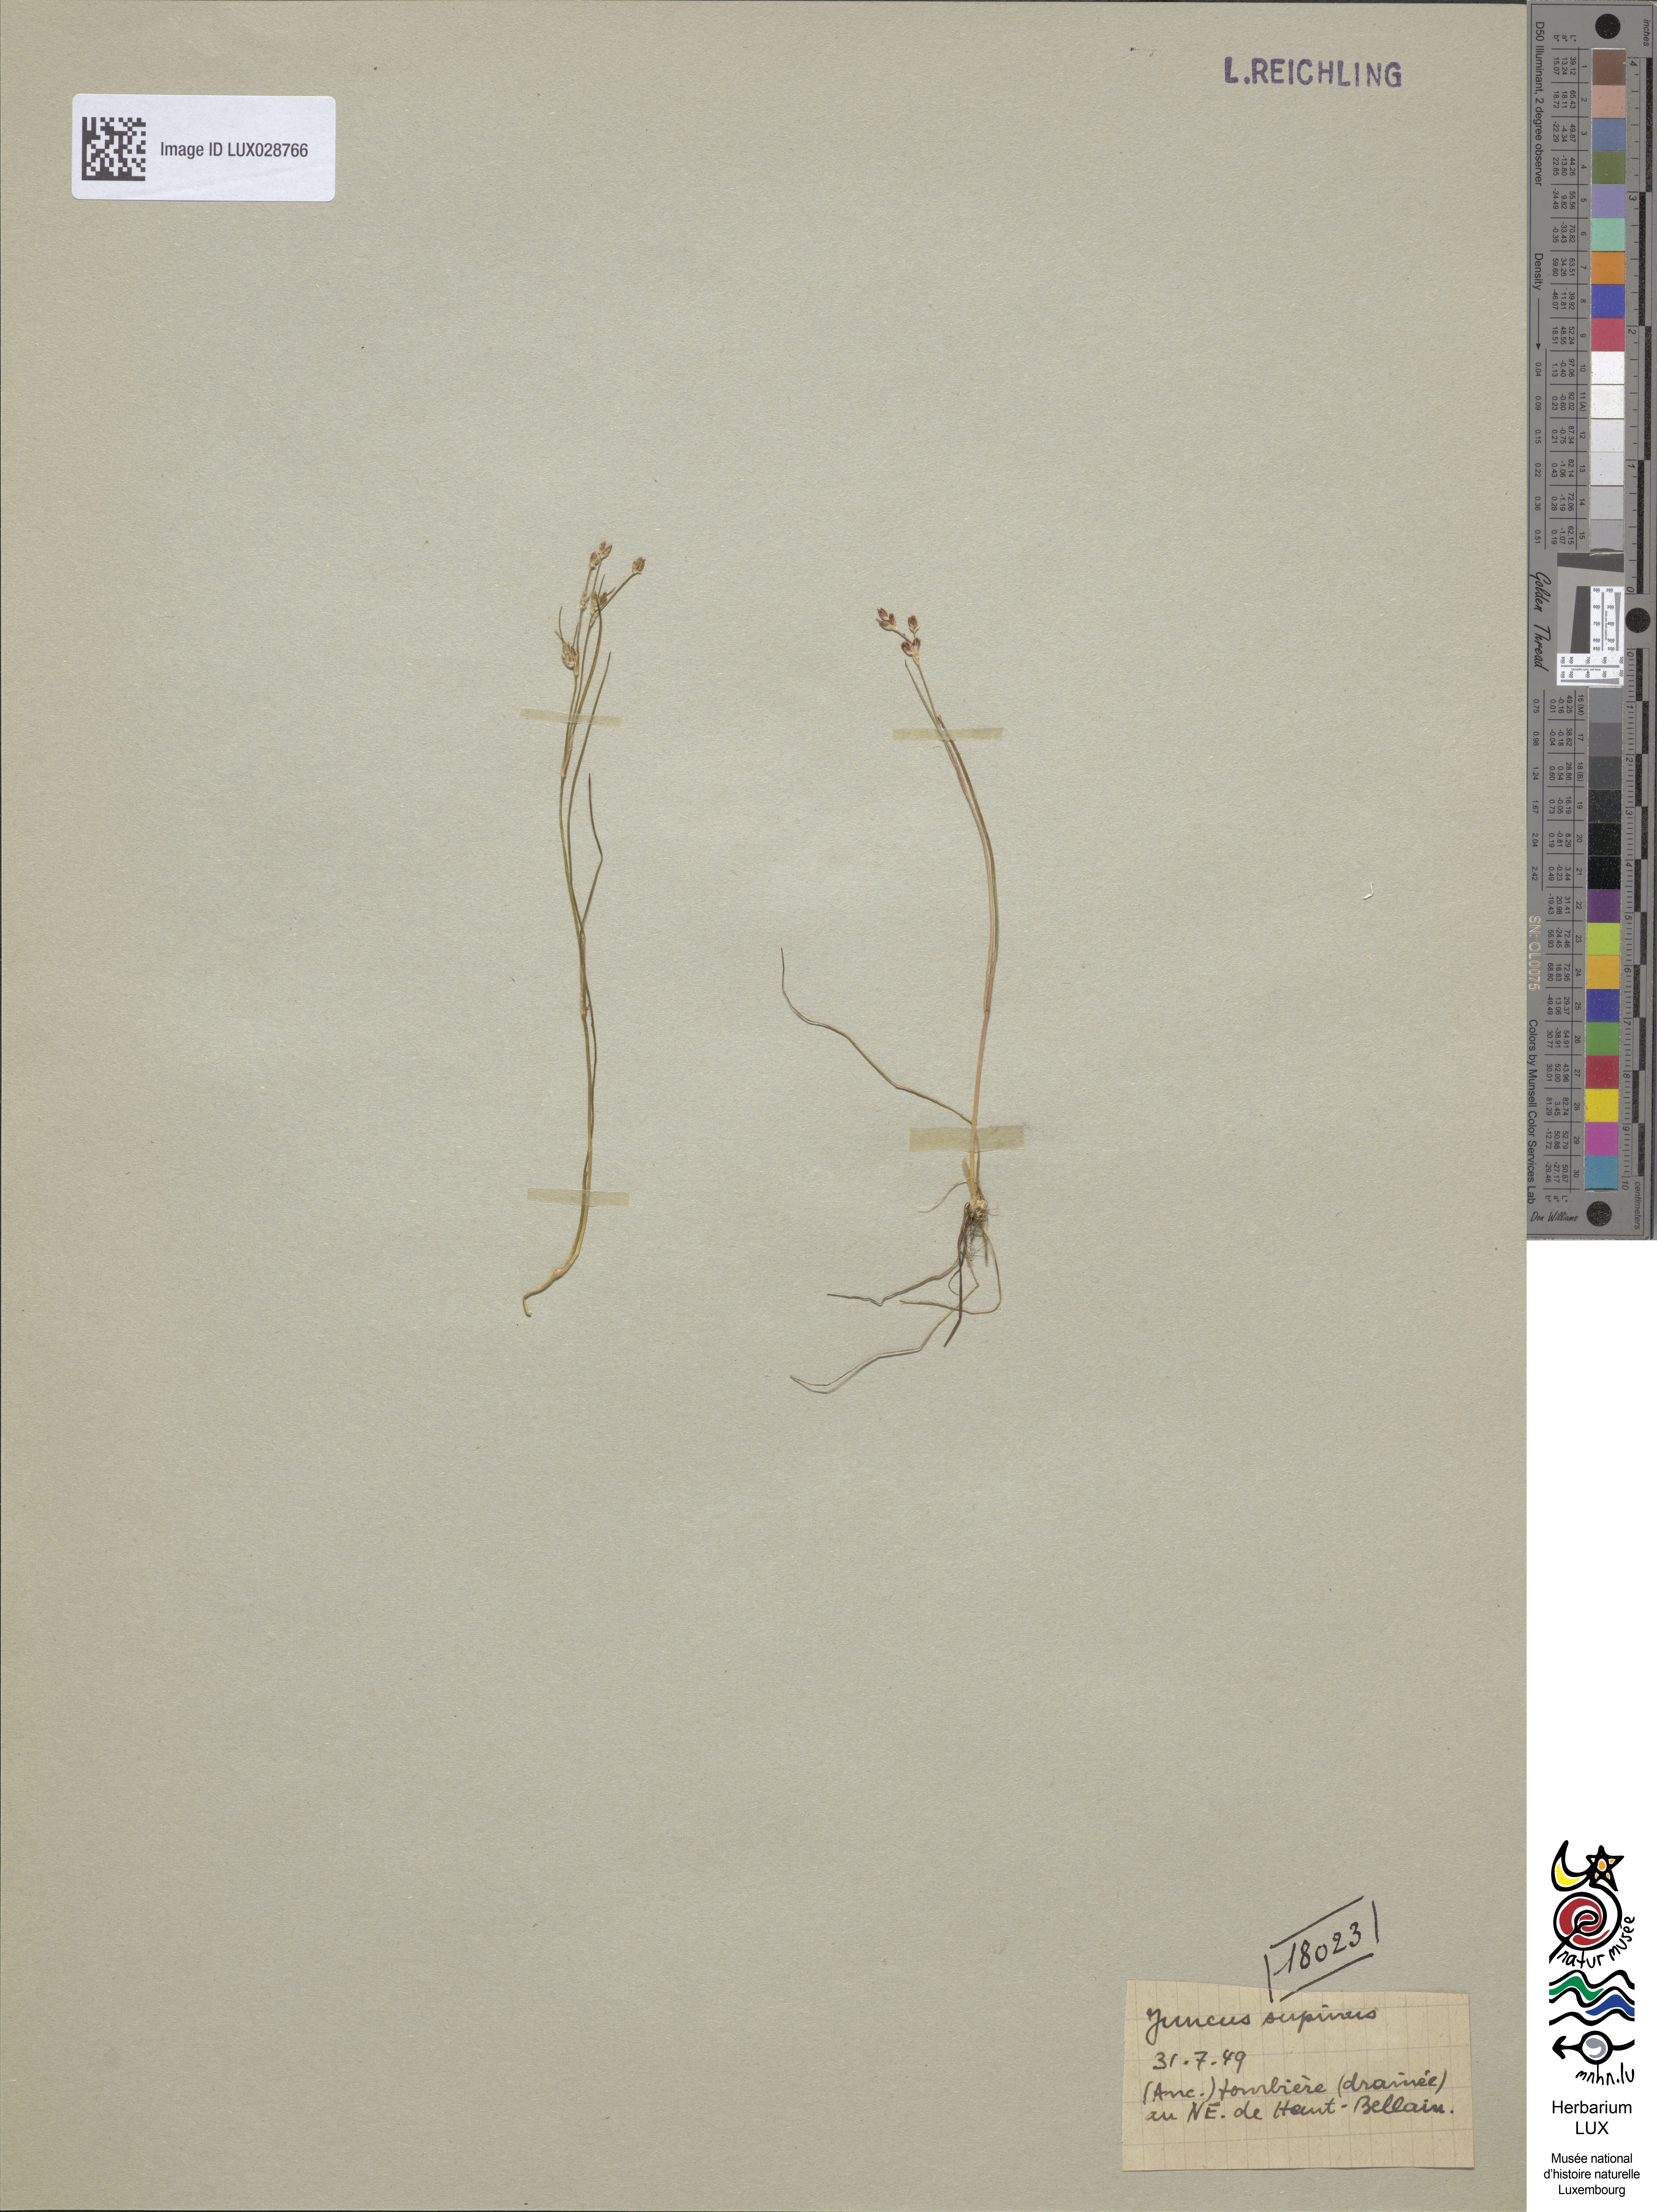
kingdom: Plantae
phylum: Tracheophyta
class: Liliopsida
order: Poales
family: Juncaceae
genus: Juncus
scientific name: Juncus bulbosus
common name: Bulbous rush
